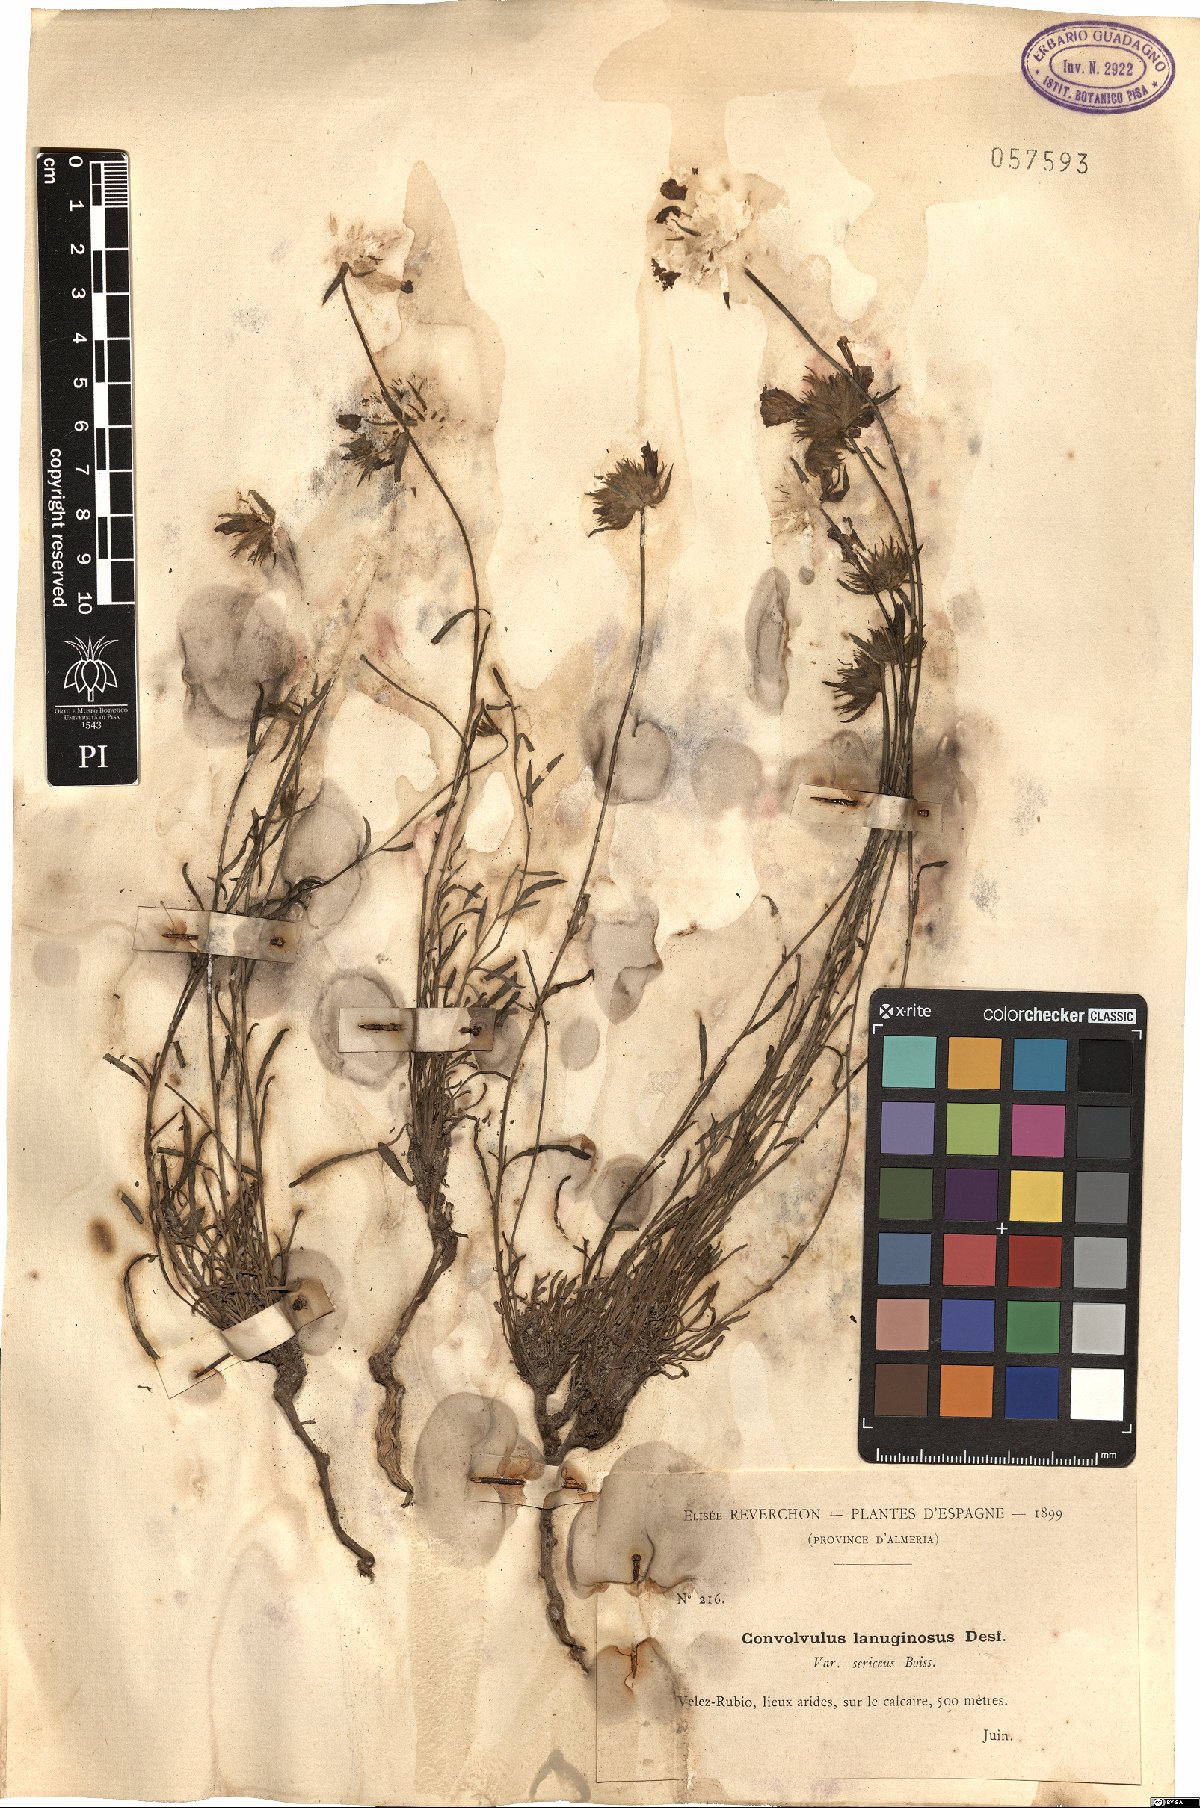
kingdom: Plantae
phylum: Tracheophyta
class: Magnoliopsida
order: Solanales
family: Convolvulaceae
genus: Convolvulus
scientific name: Convolvulus lanuginosus
